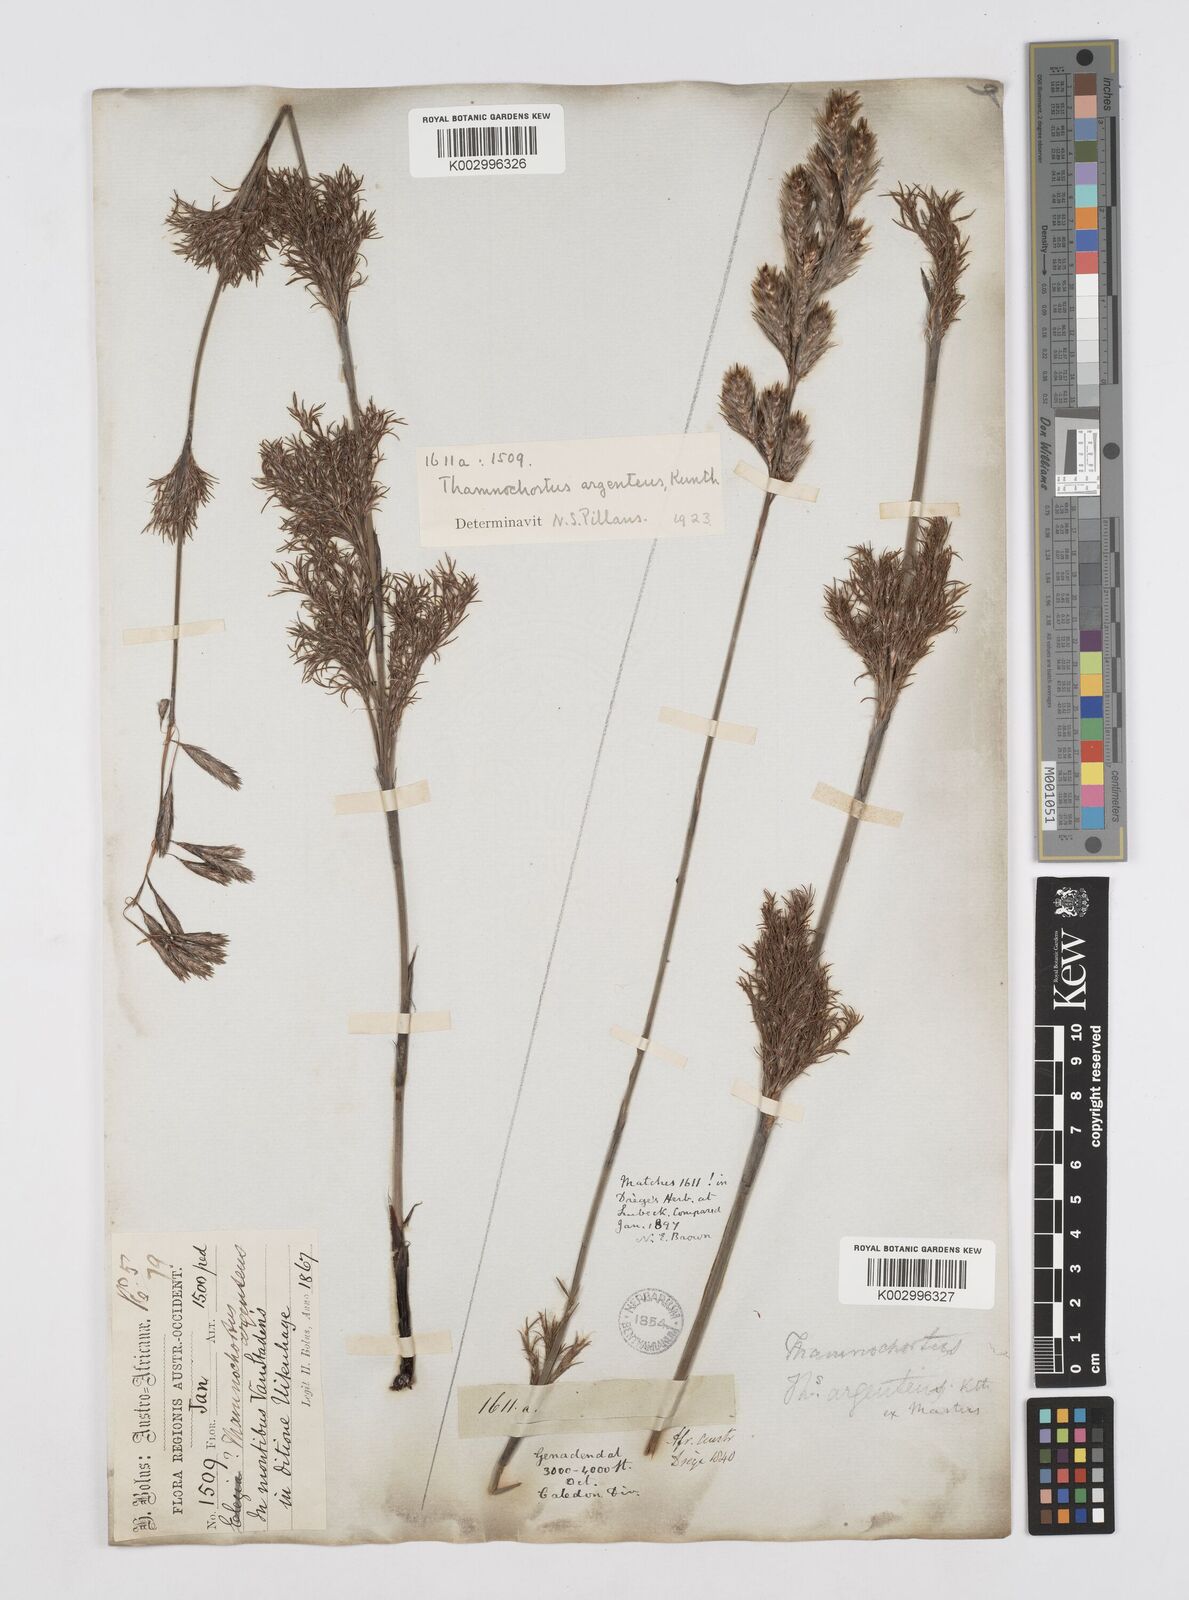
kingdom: Plantae
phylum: Tracheophyta
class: Liliopsida
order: Poales
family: Restionaceae
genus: Hypodiscus
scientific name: Hypodiscus argenteus
